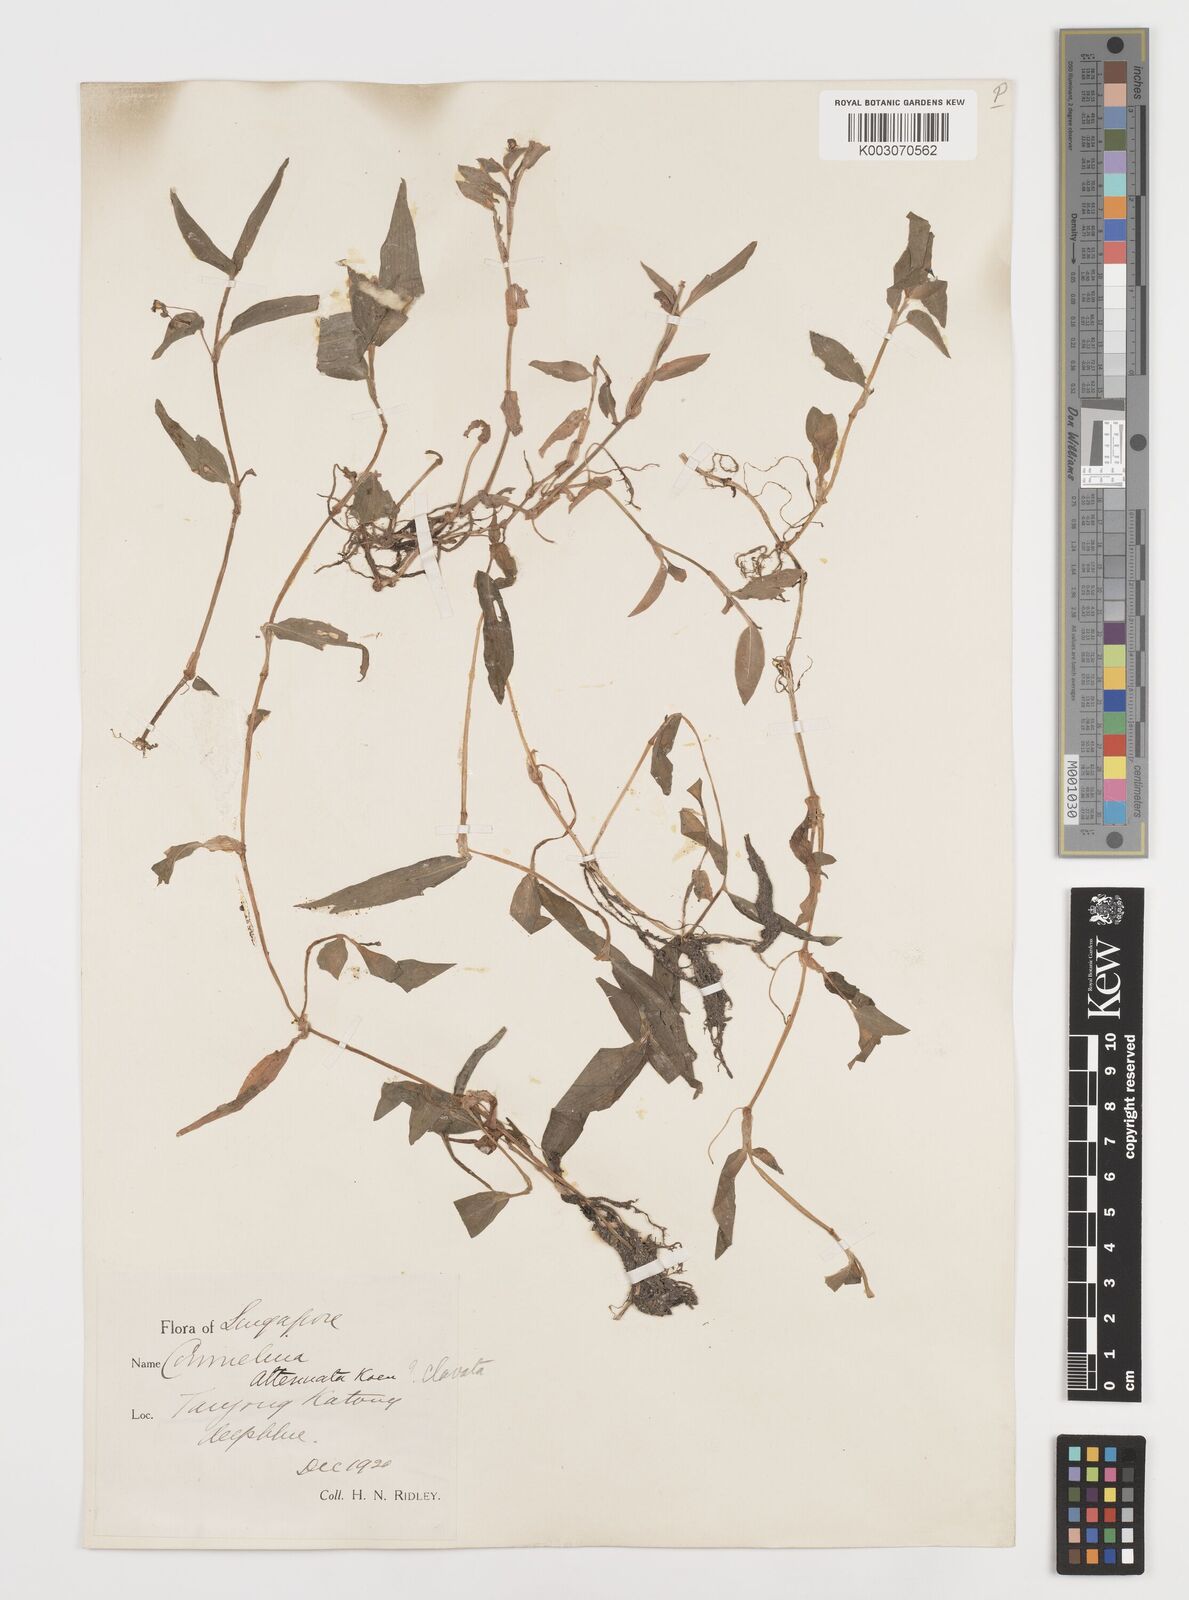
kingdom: Plantae
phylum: Tracheophyta
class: Liliopsida
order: Commelinales
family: Commelinaceae
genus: Commelina
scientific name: Commelina clavata
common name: Willow leaved dayflower
